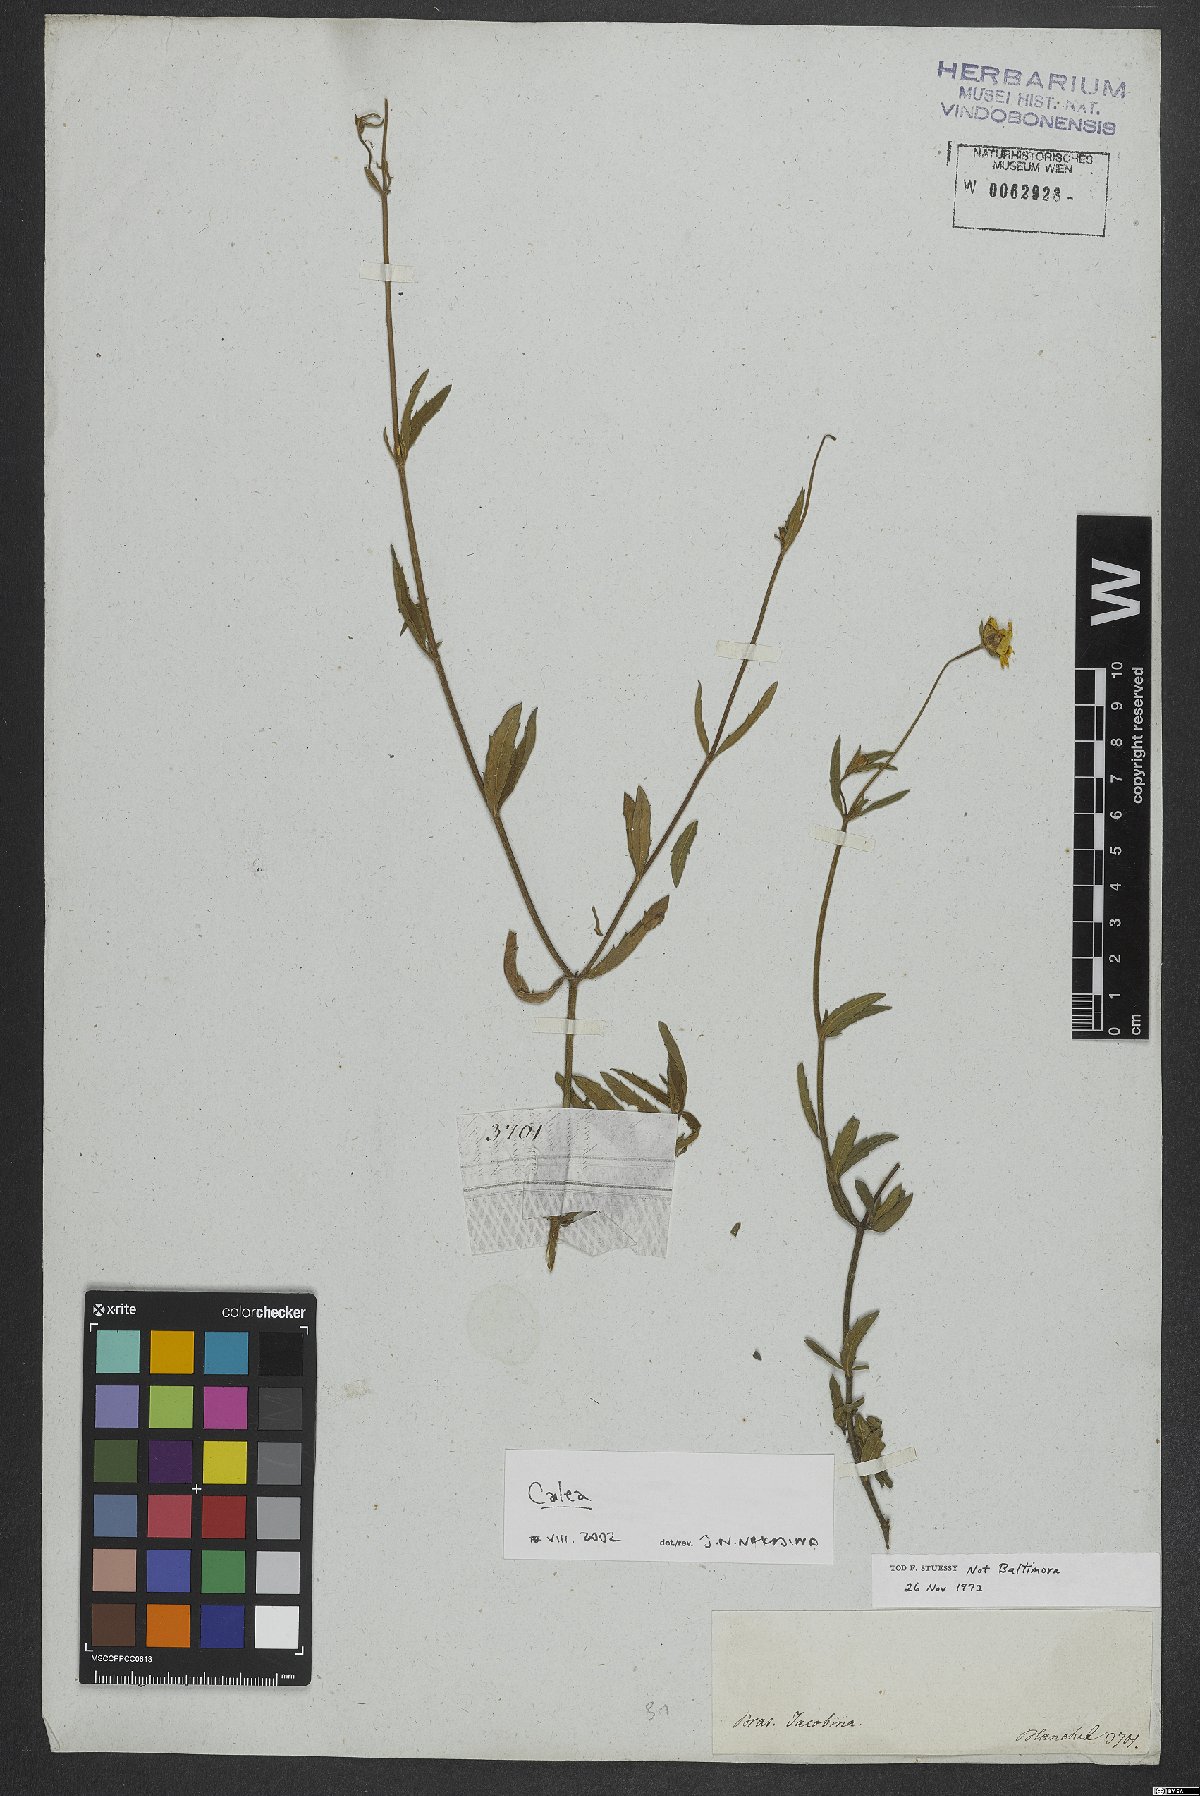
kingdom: Plantae
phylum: Tracheophyta
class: Magnoliopsida
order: Asterales
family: Asteraceae
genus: Calea
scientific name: Calea
